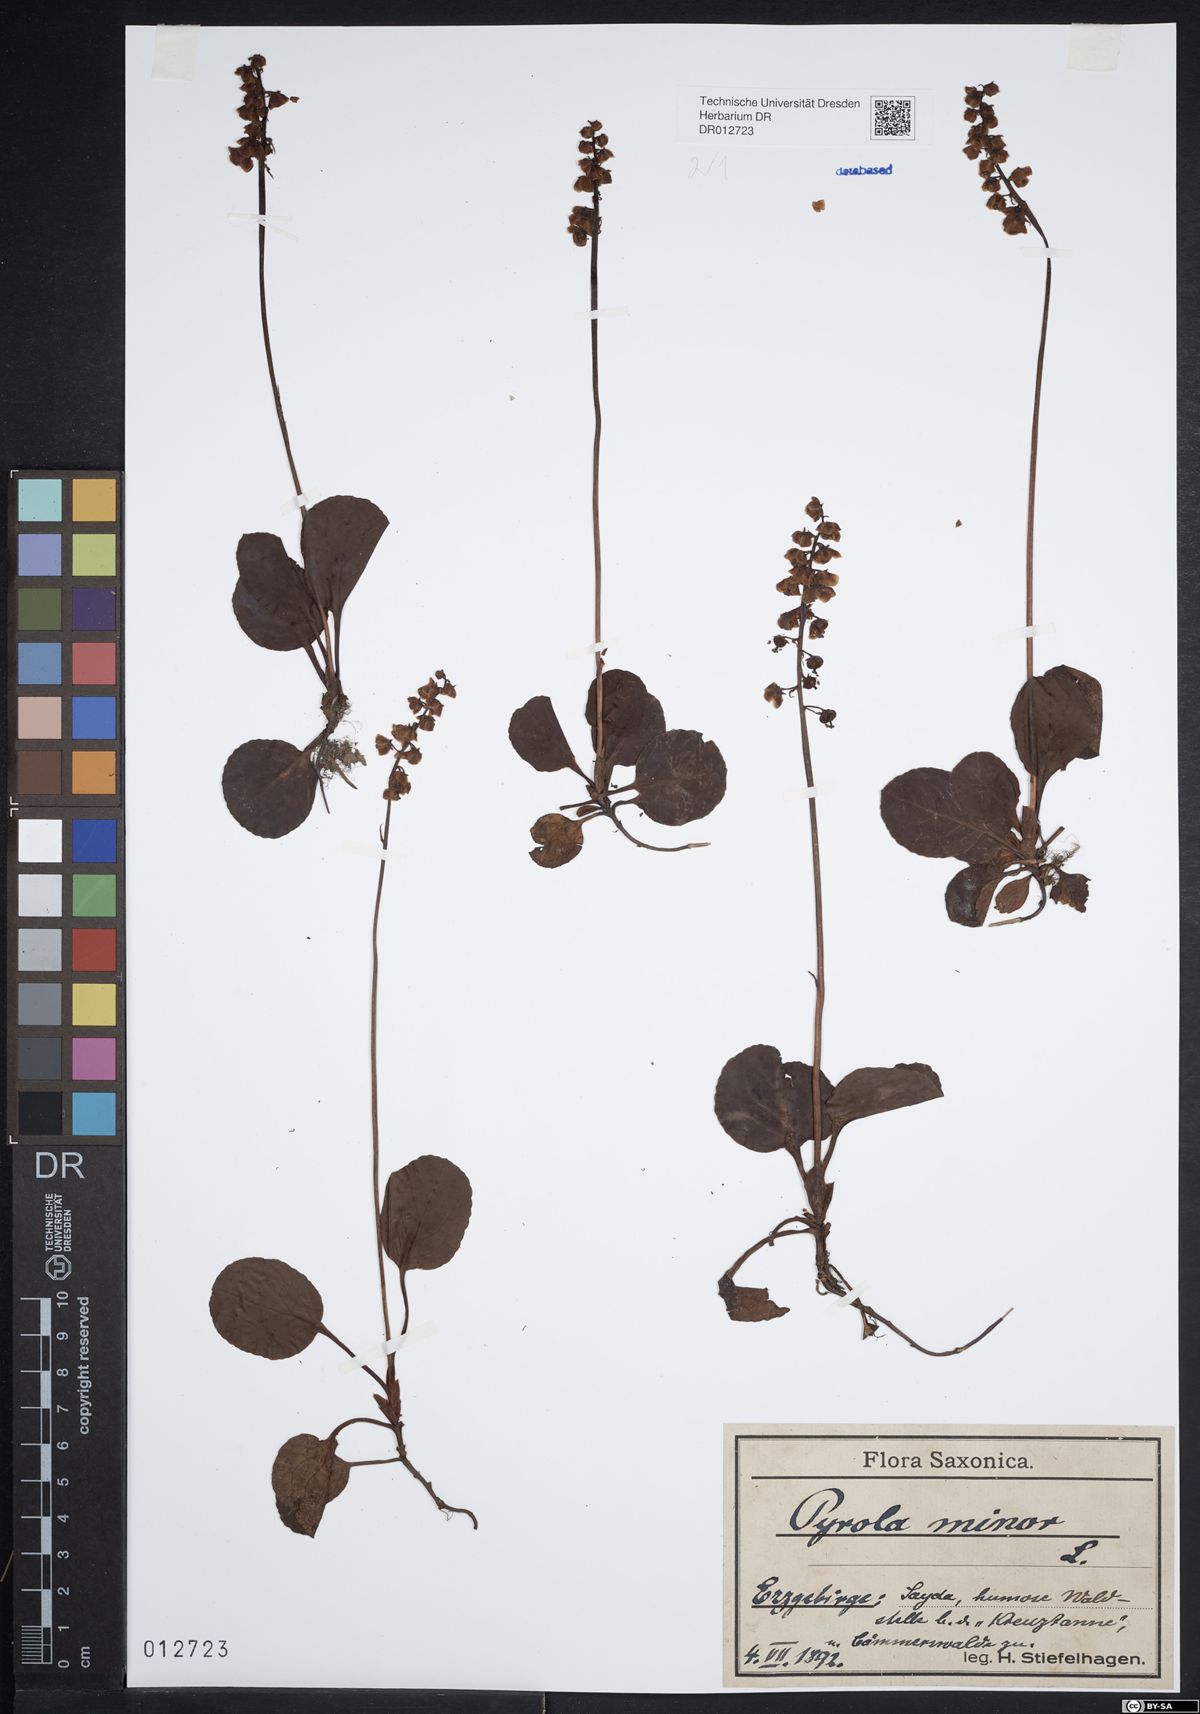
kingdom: Plantae
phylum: Tracheophyta
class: Magnoliopsida
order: Ericales
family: Ericaceae
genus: Pyrola
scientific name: Pyrola minor
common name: Common wintergreen
